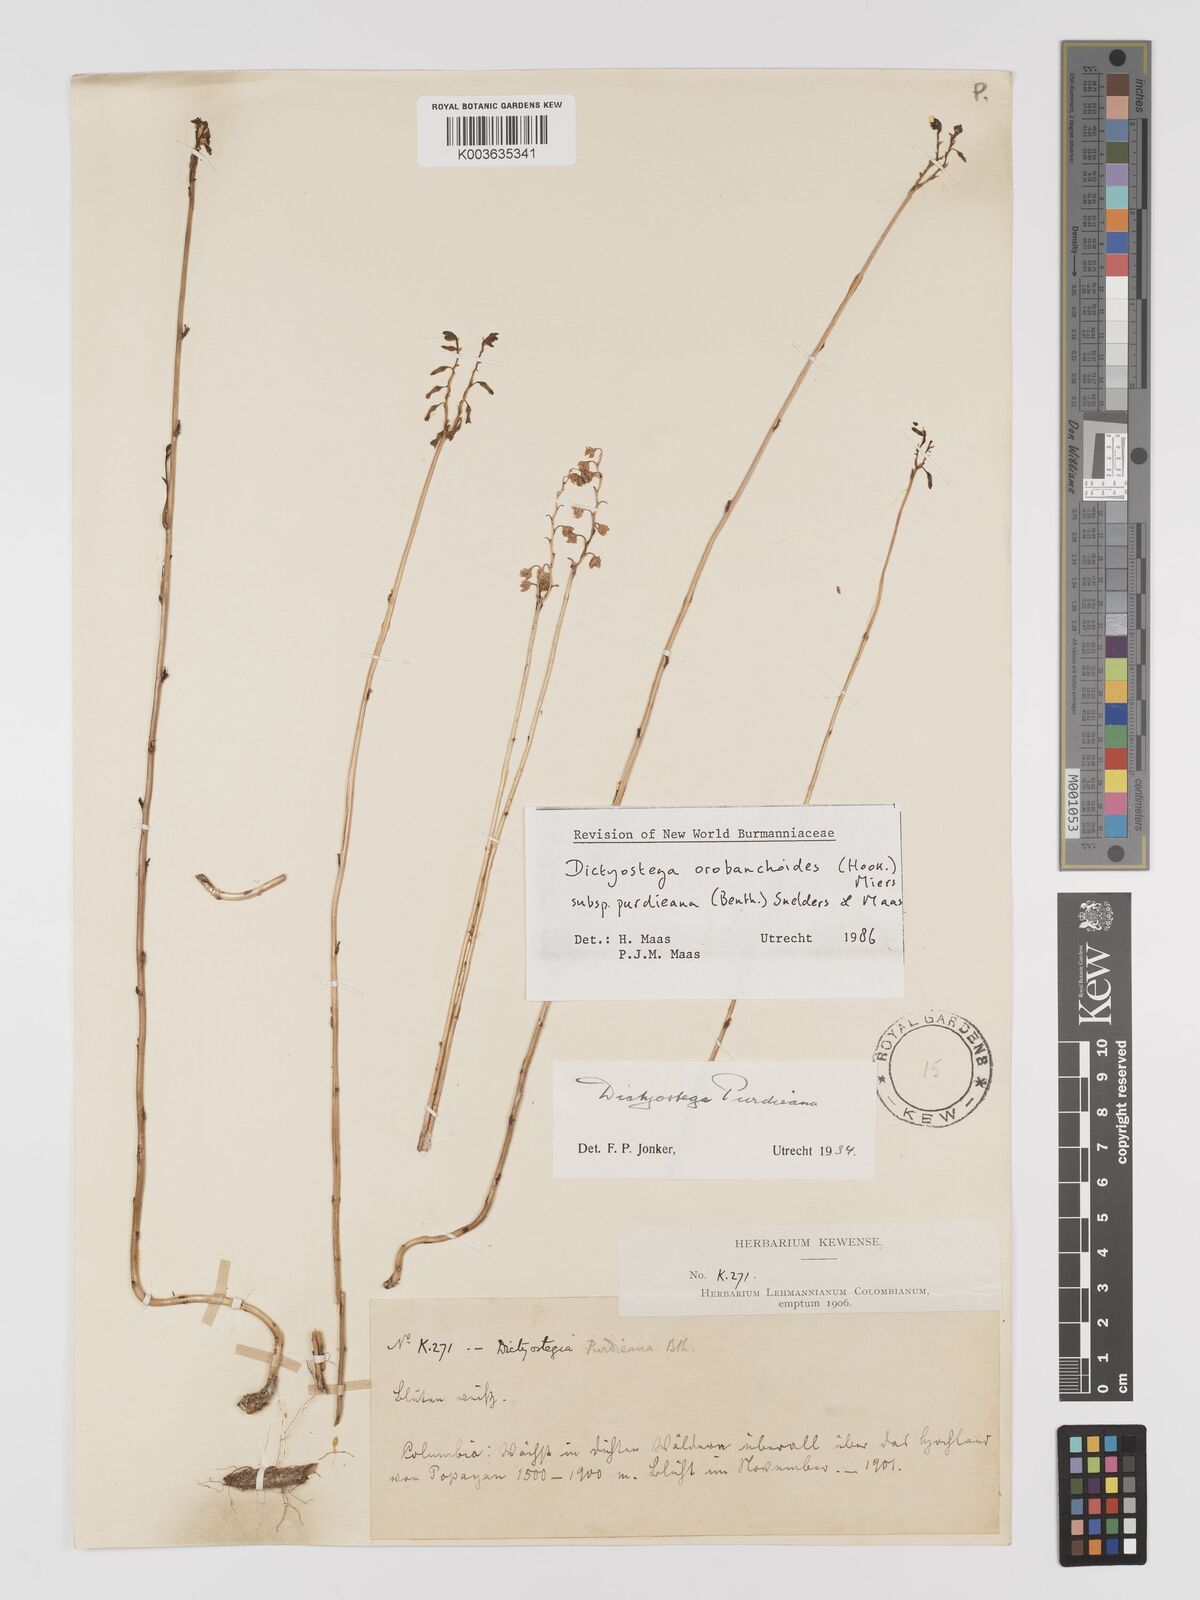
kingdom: Plantae
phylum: Tracheophyta
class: Liliopsida
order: Dioscoreales
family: Burmanniaceae
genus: Dictyostega
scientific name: Dictyostega orobanchoides
